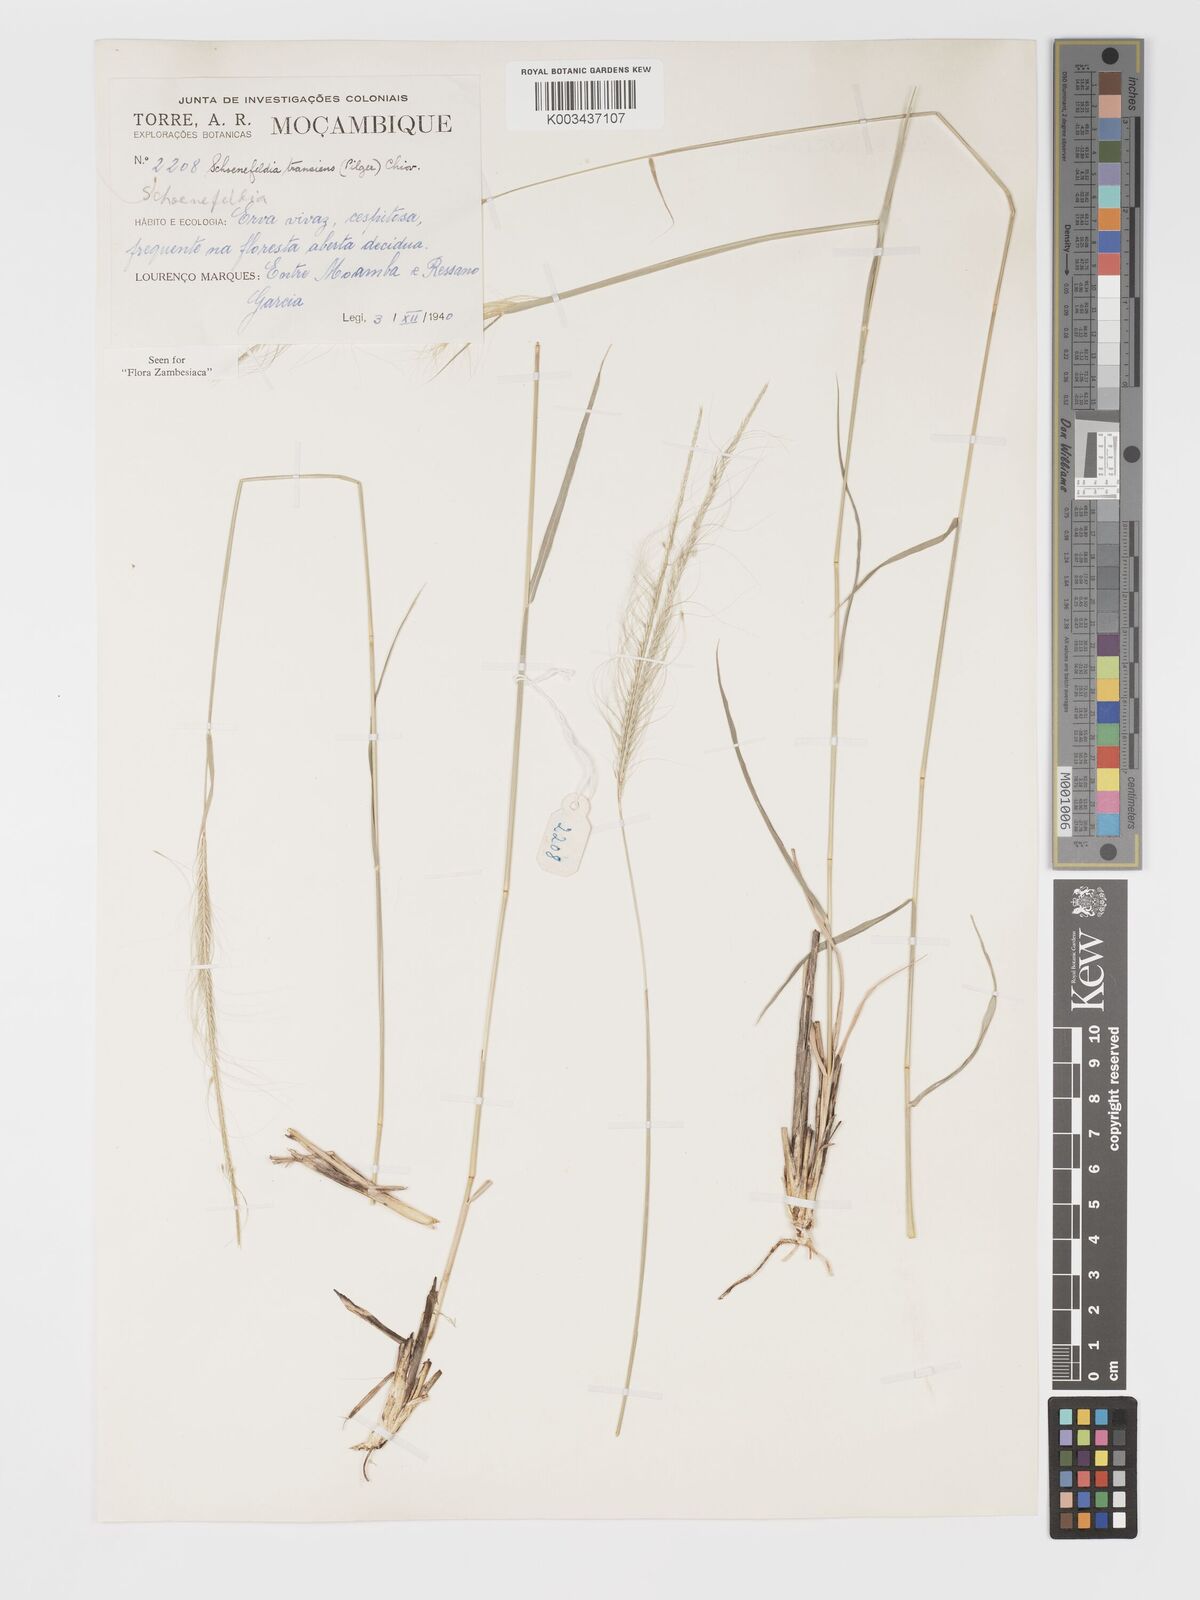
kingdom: Plantae
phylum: Tracheophyta
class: Liliopsida
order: Poales
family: Poaceae
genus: Schoenefeldia
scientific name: Schoenefeldia transiens
